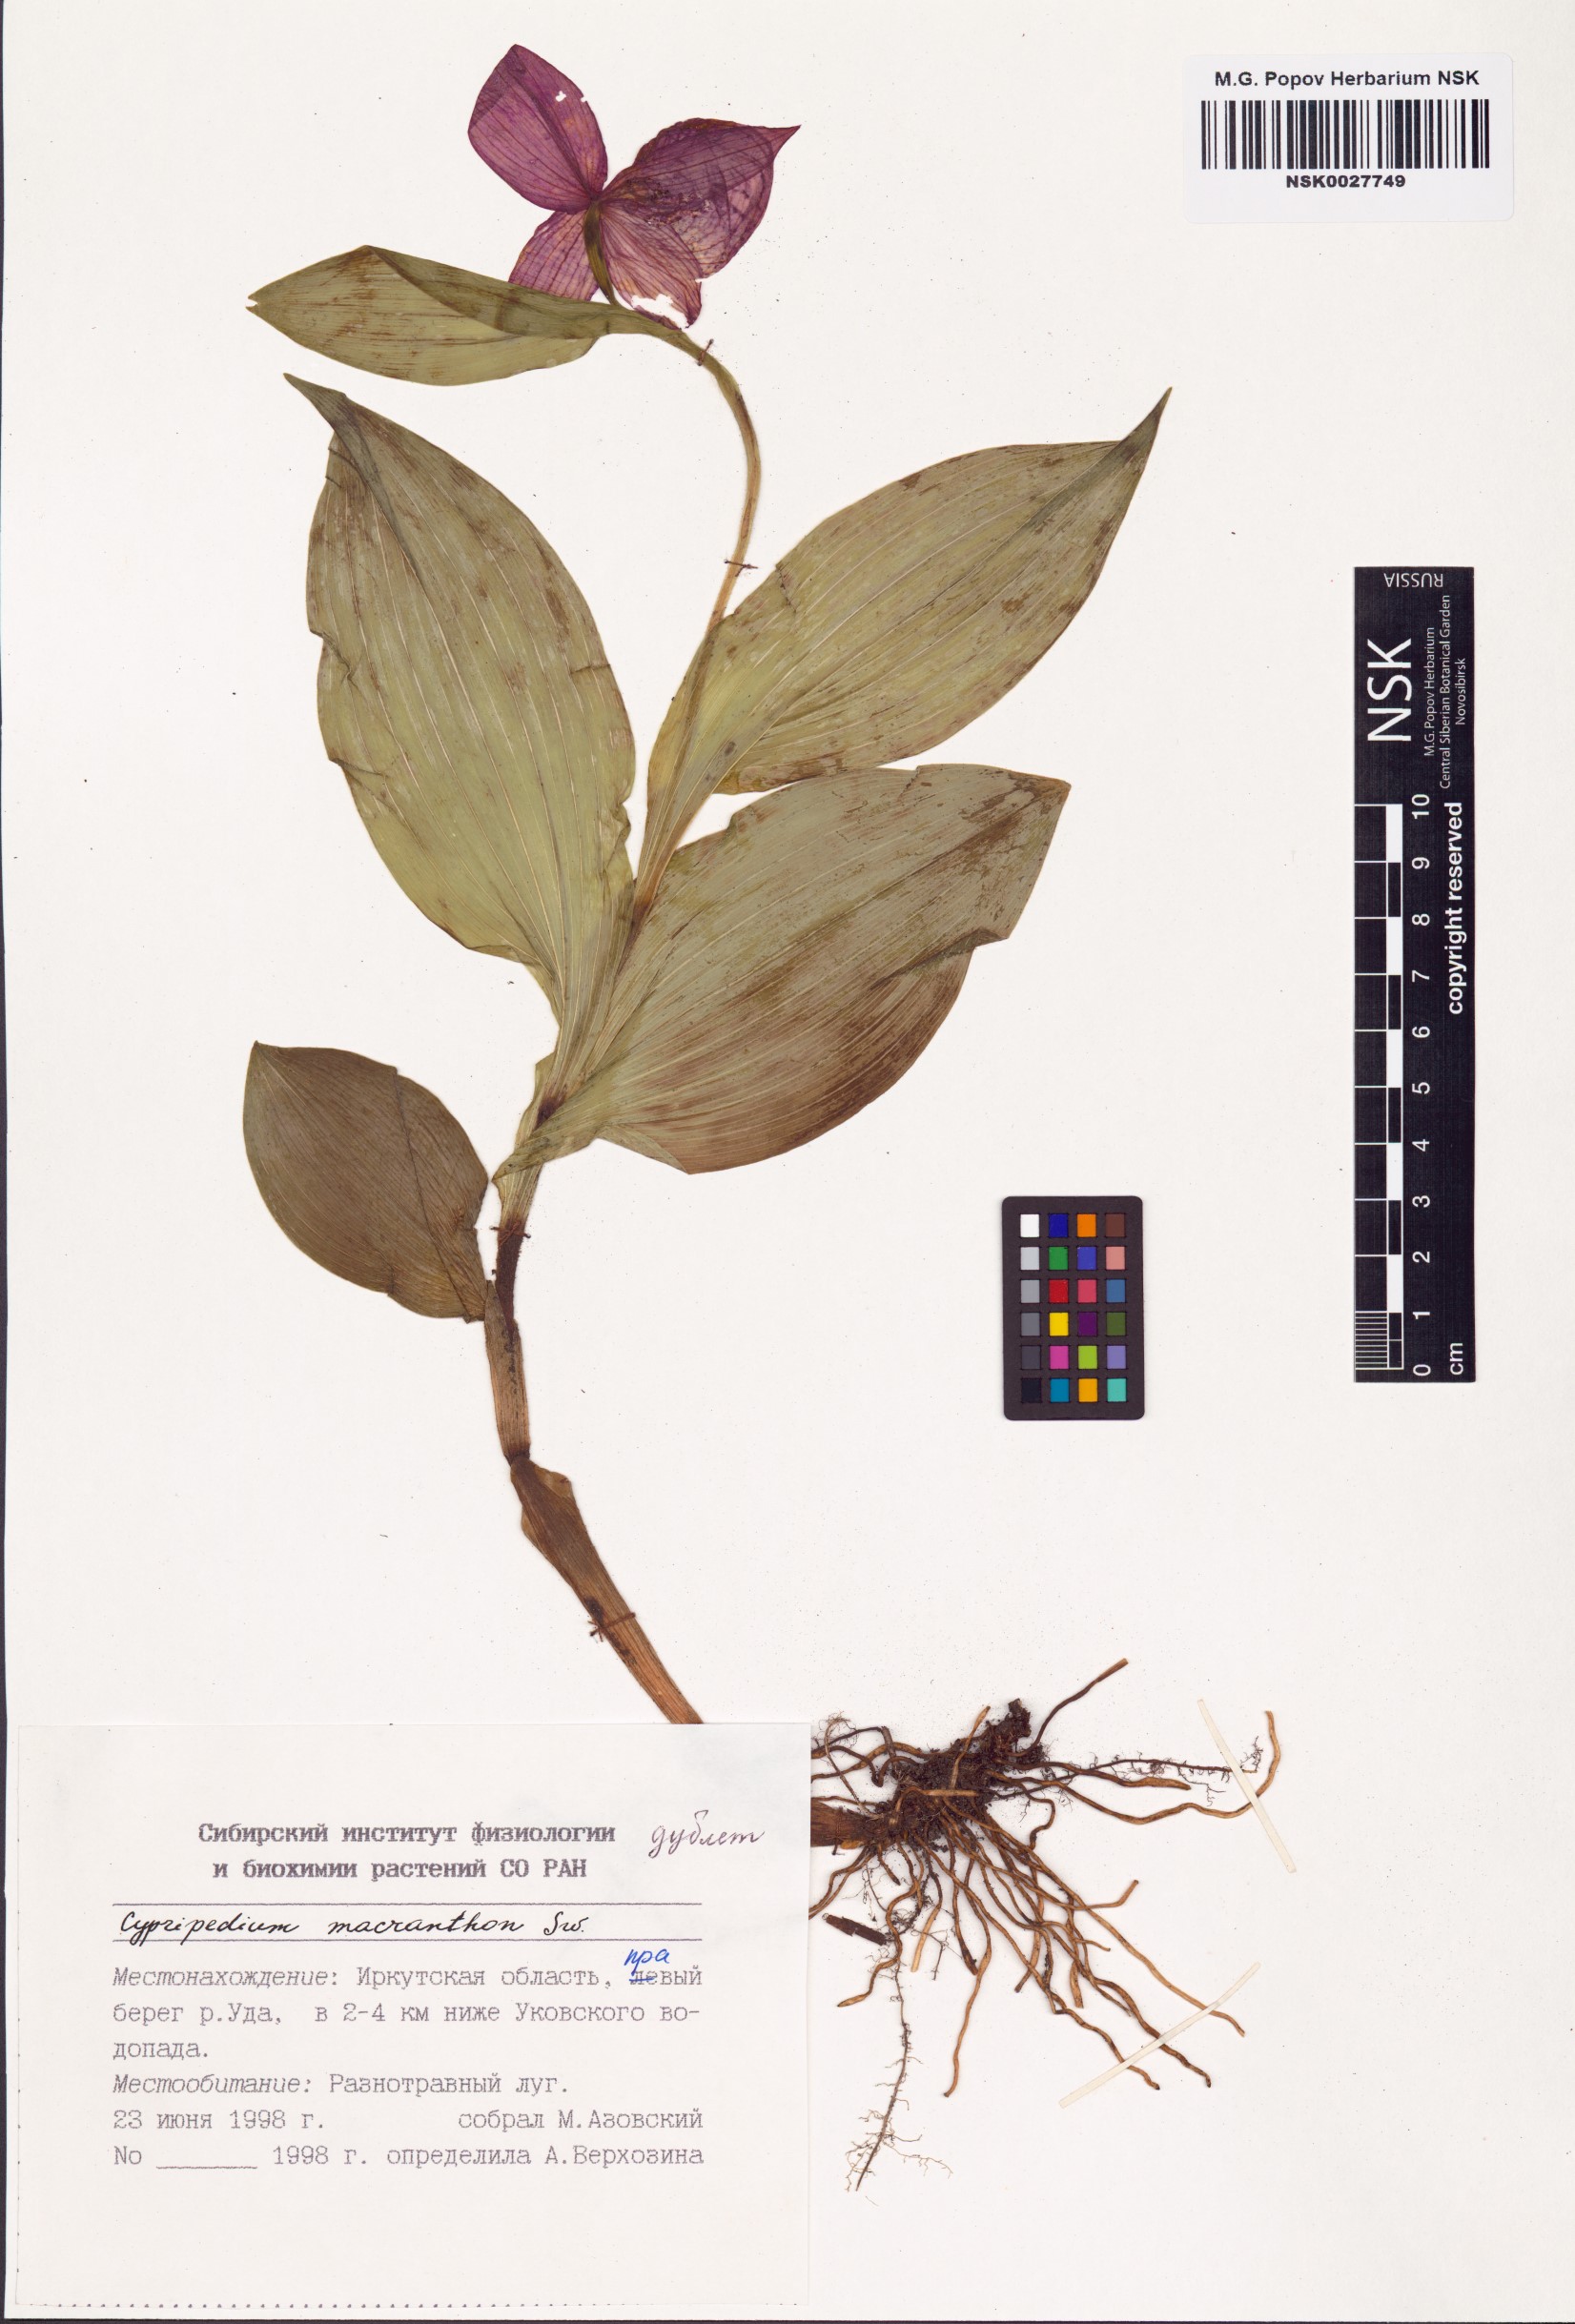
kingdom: Plantae
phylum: Tracheophyta
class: Liliopsida
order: Asparagales
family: Orchidaceae
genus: Cypripedium
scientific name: Cypripedium macranthos
